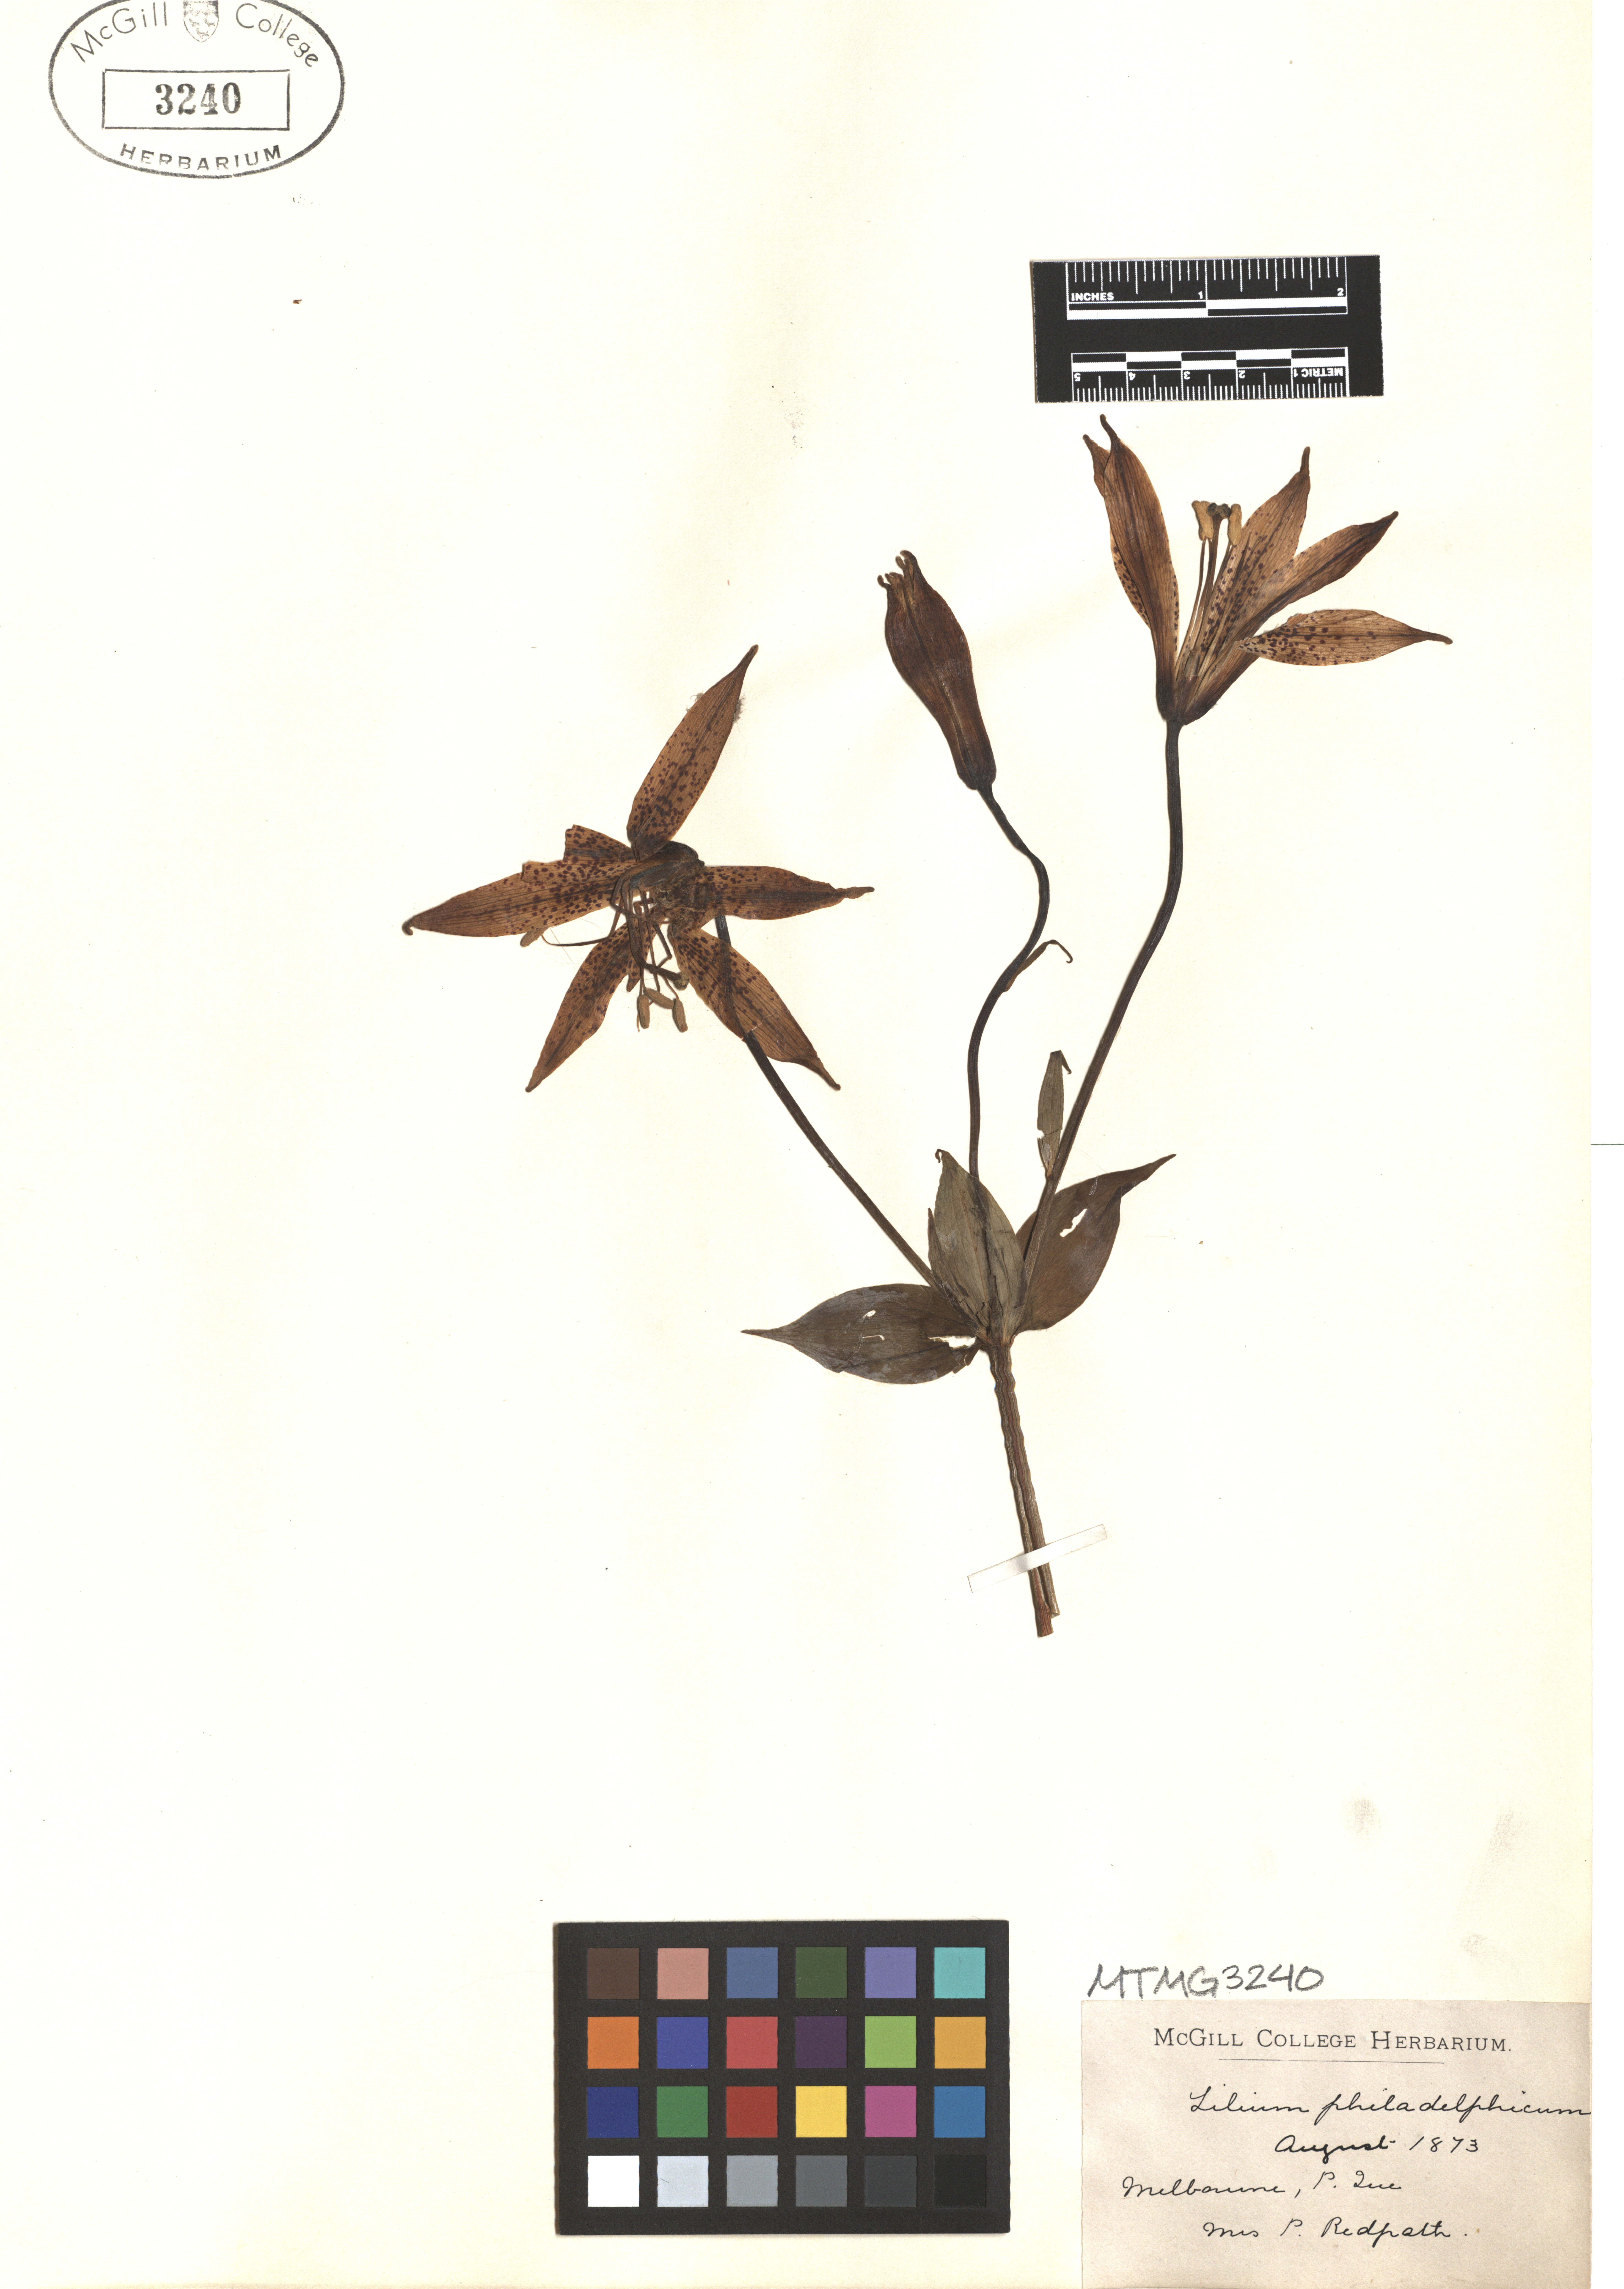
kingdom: Plantae
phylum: Tracheophyta
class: Liliopsida
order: Liliales
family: Liliaceae
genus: Lilium
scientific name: Lilium philadelphicum
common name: Red lily
